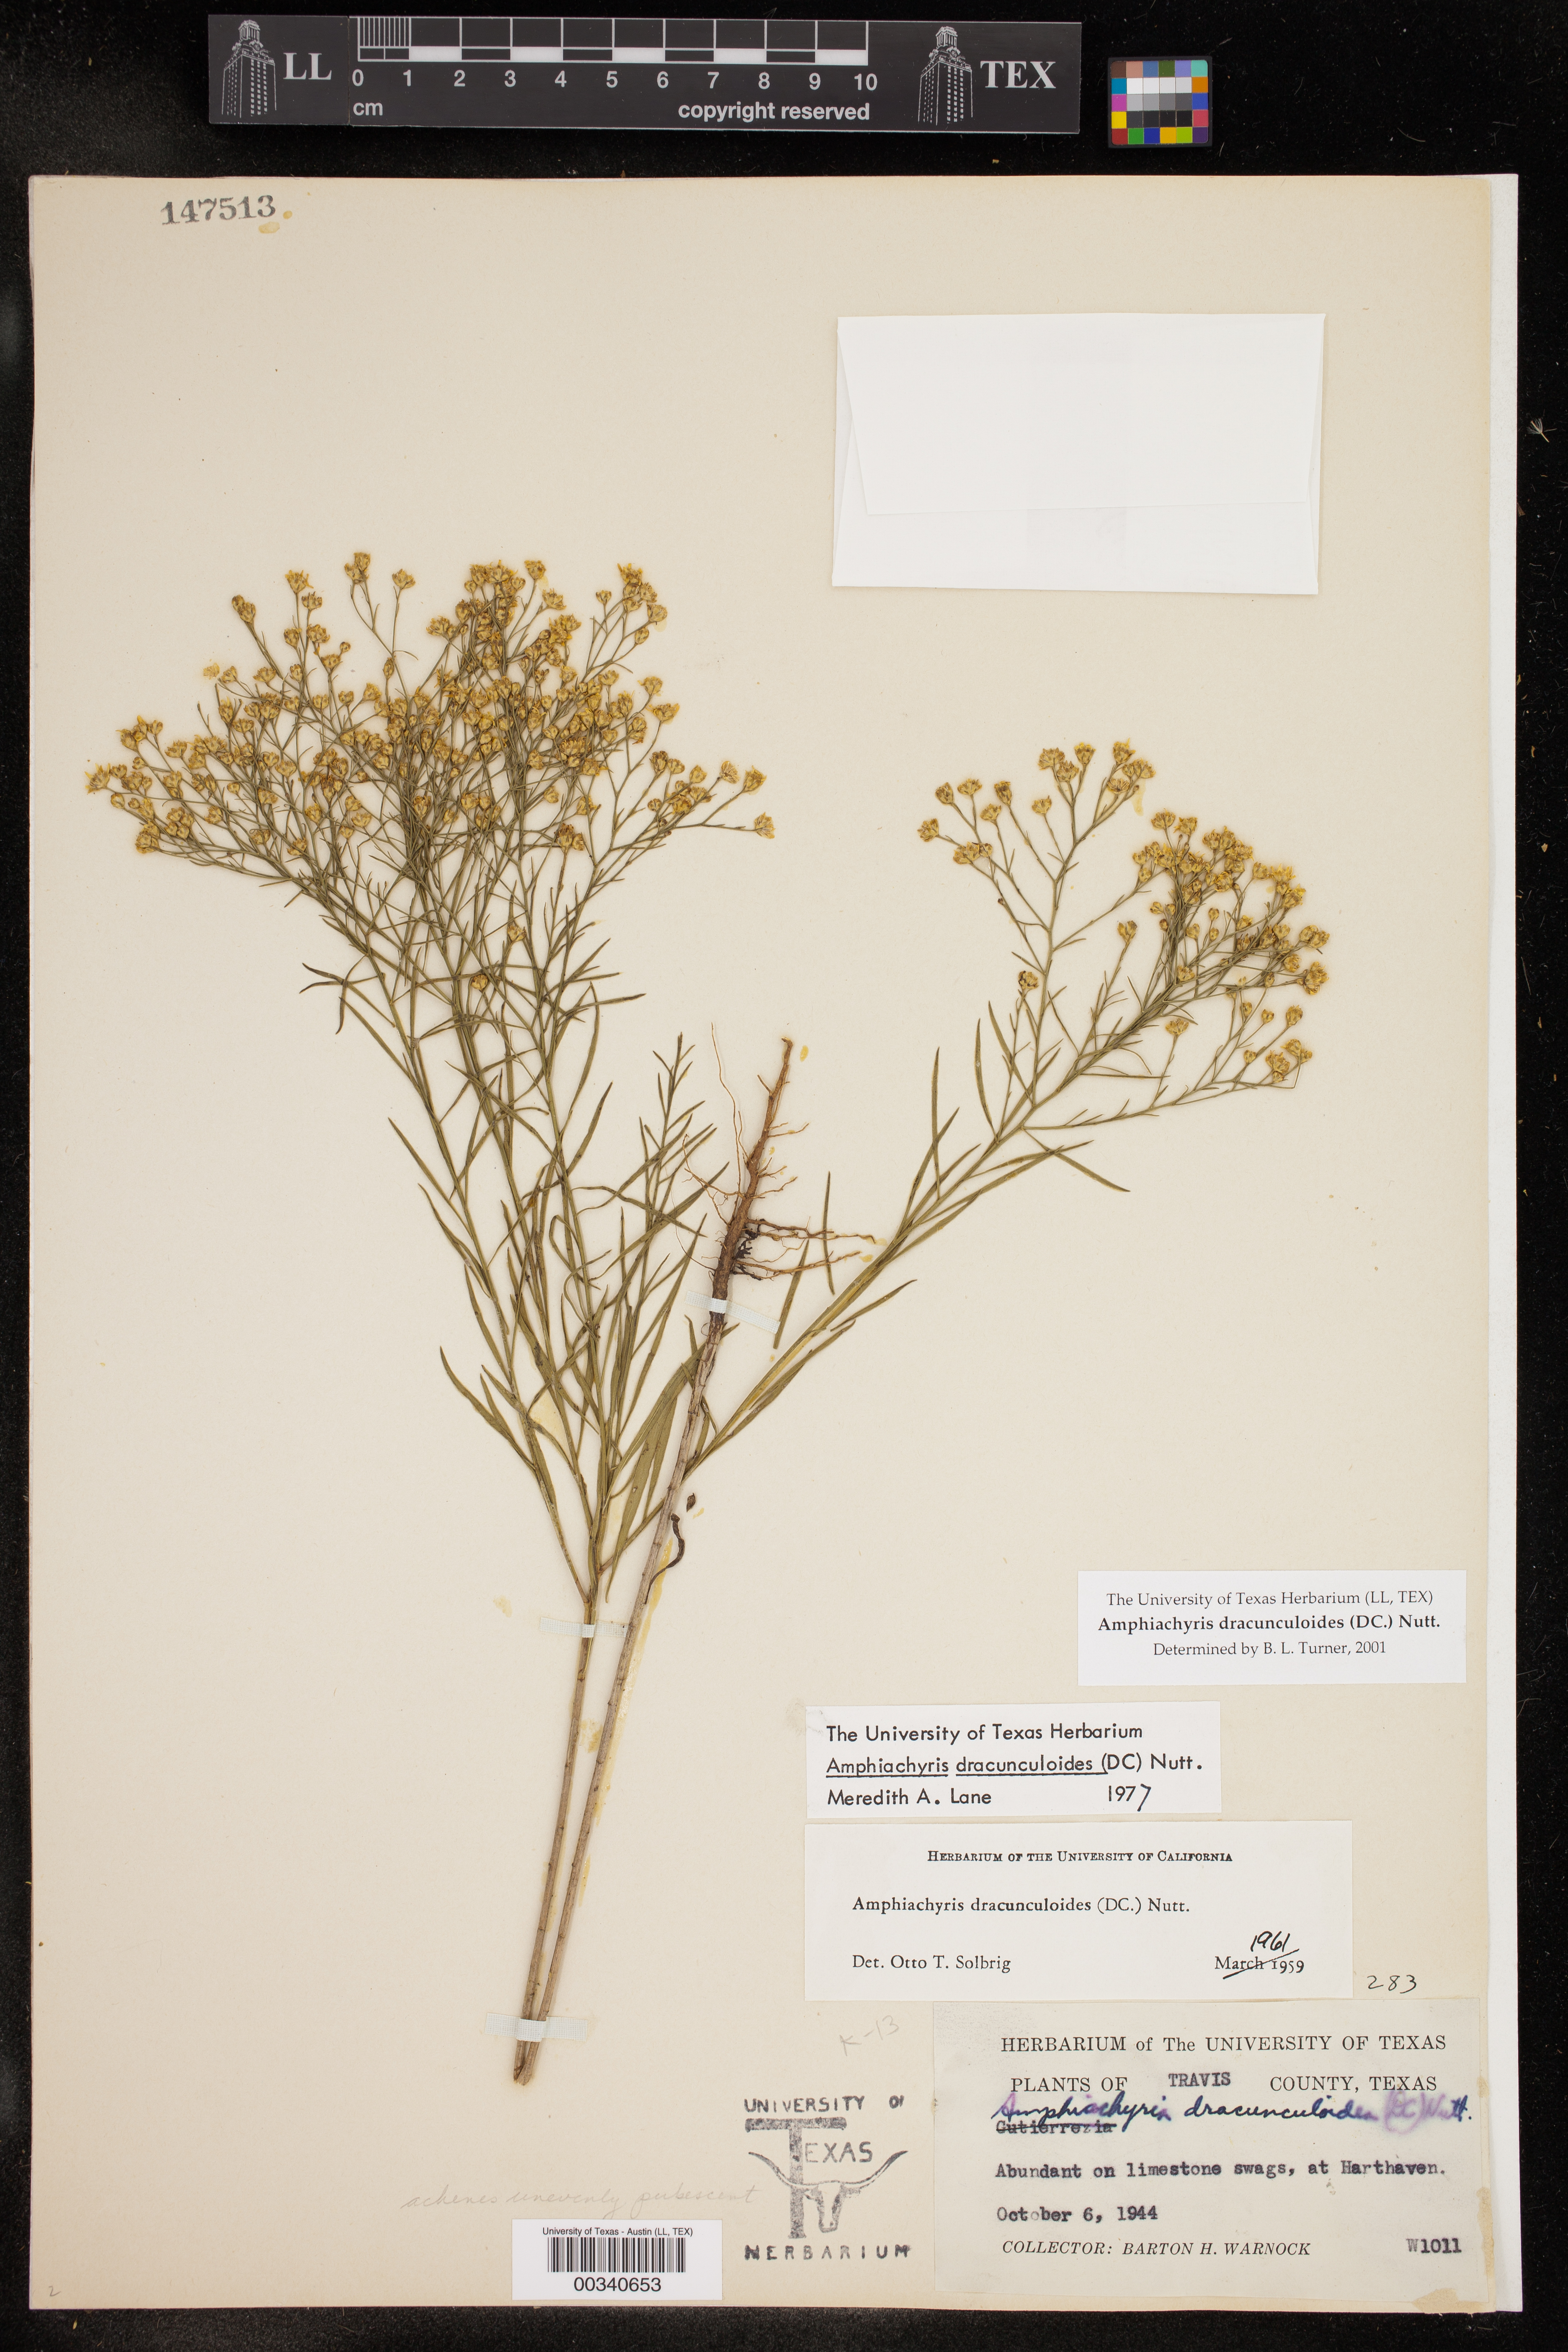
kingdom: Plantae
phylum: Tracheophyta
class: Magnoliopsida
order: Asterales
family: Asteraceae
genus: Amphiachyris
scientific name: Amphiachyris dracunculoides
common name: Broomweed
